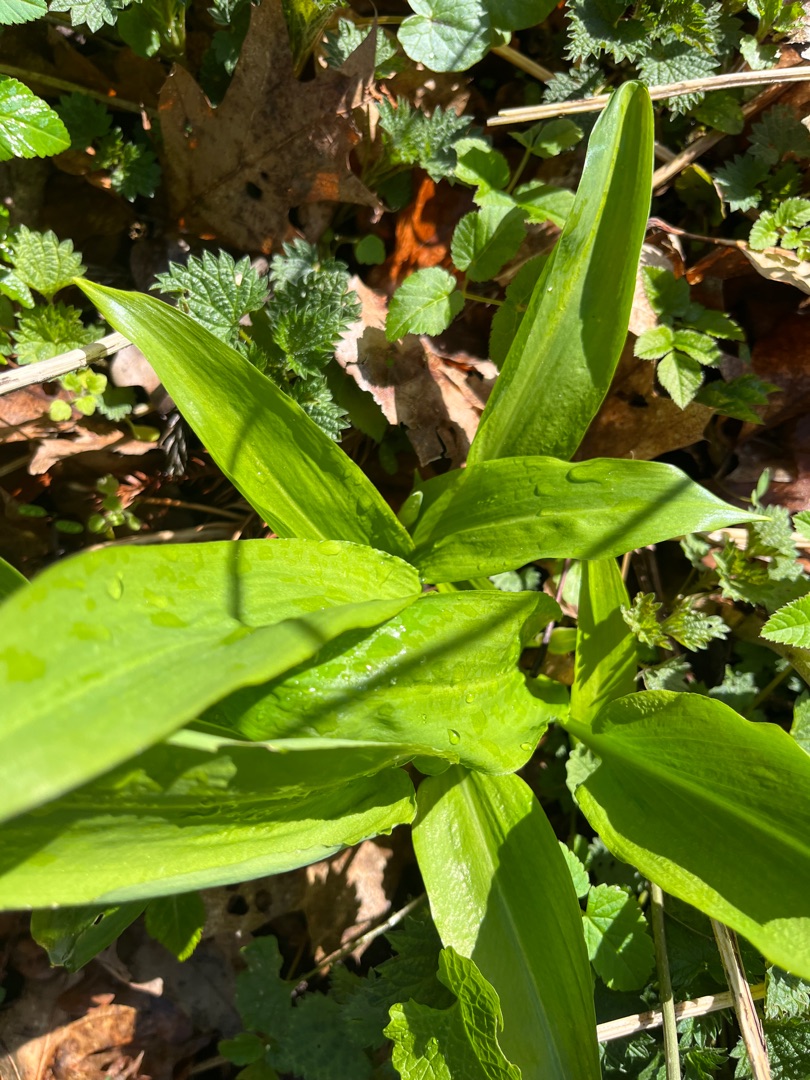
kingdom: Plantae
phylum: Tracheophyta
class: Liliopsida
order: Asparagales
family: Amaryllidaceae
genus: Allium
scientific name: Allium ursinum
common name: Rams-løg
